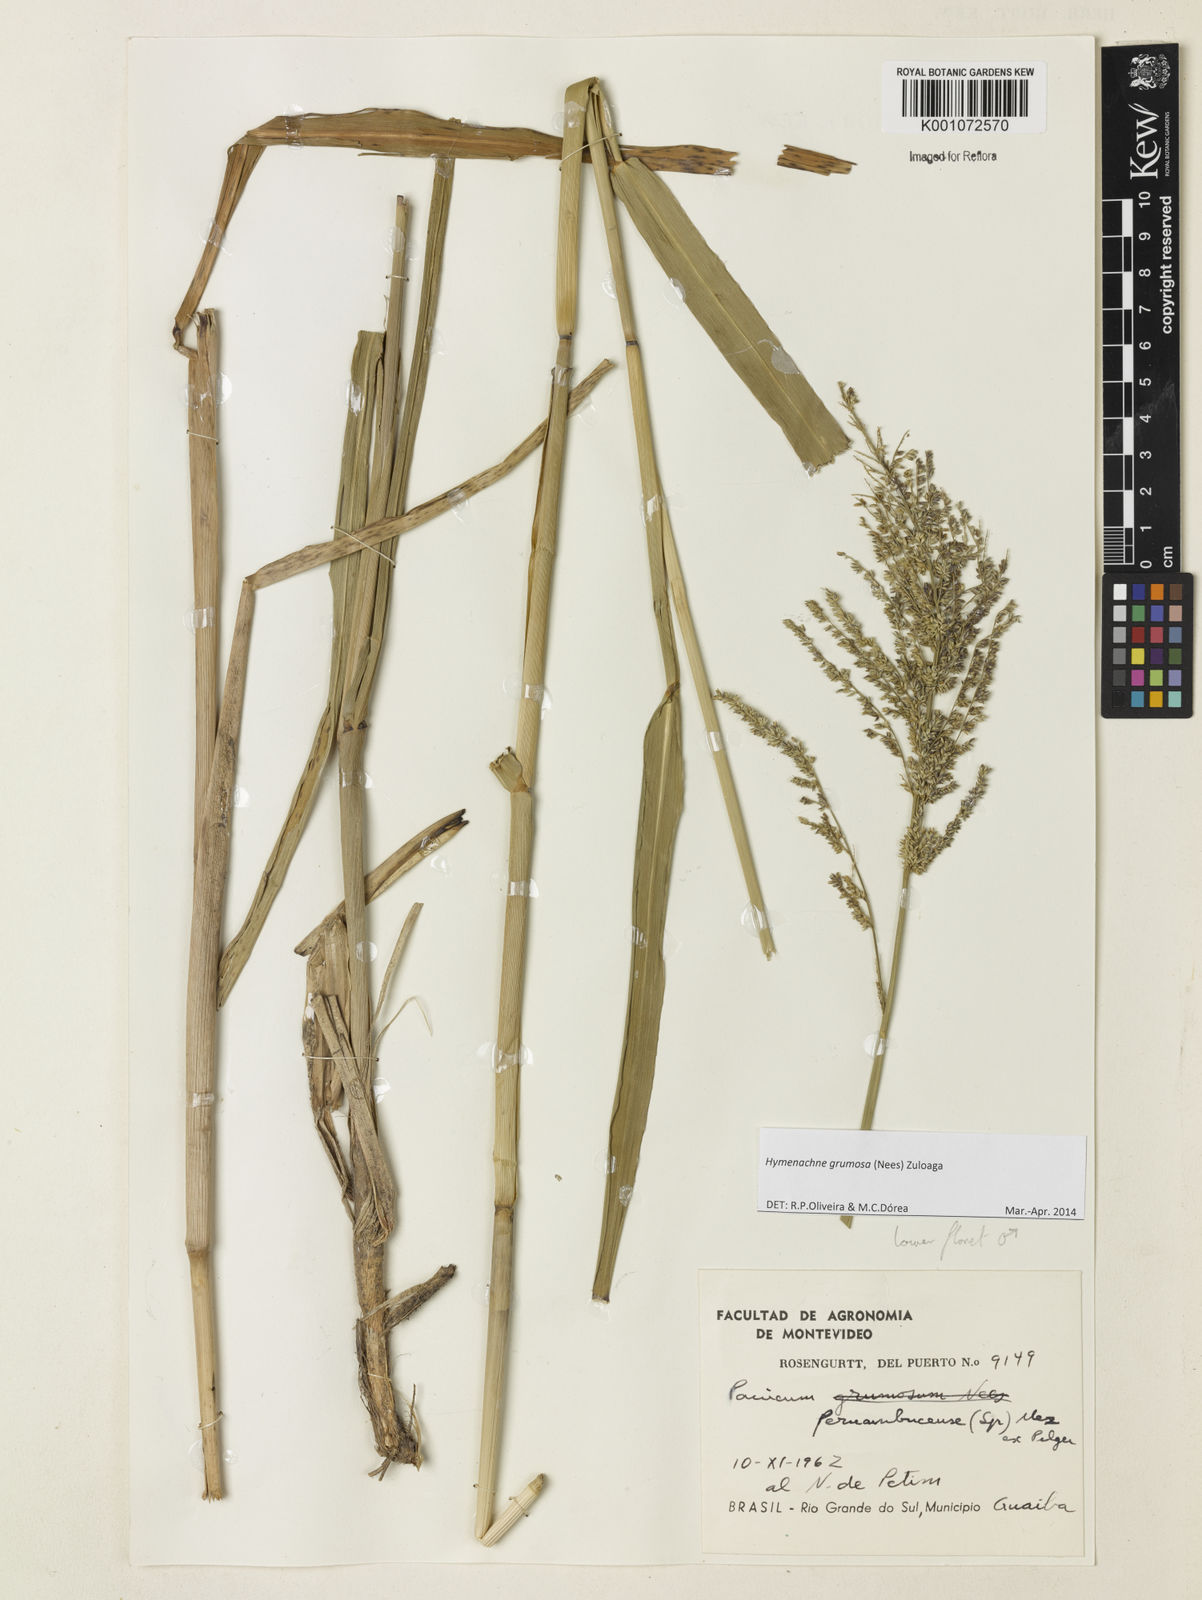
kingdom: Plantae
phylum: Tracheophyta
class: Liliopsida
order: Poales
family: Poaceae
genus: Hymenachne
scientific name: Hymenachne grumosa
